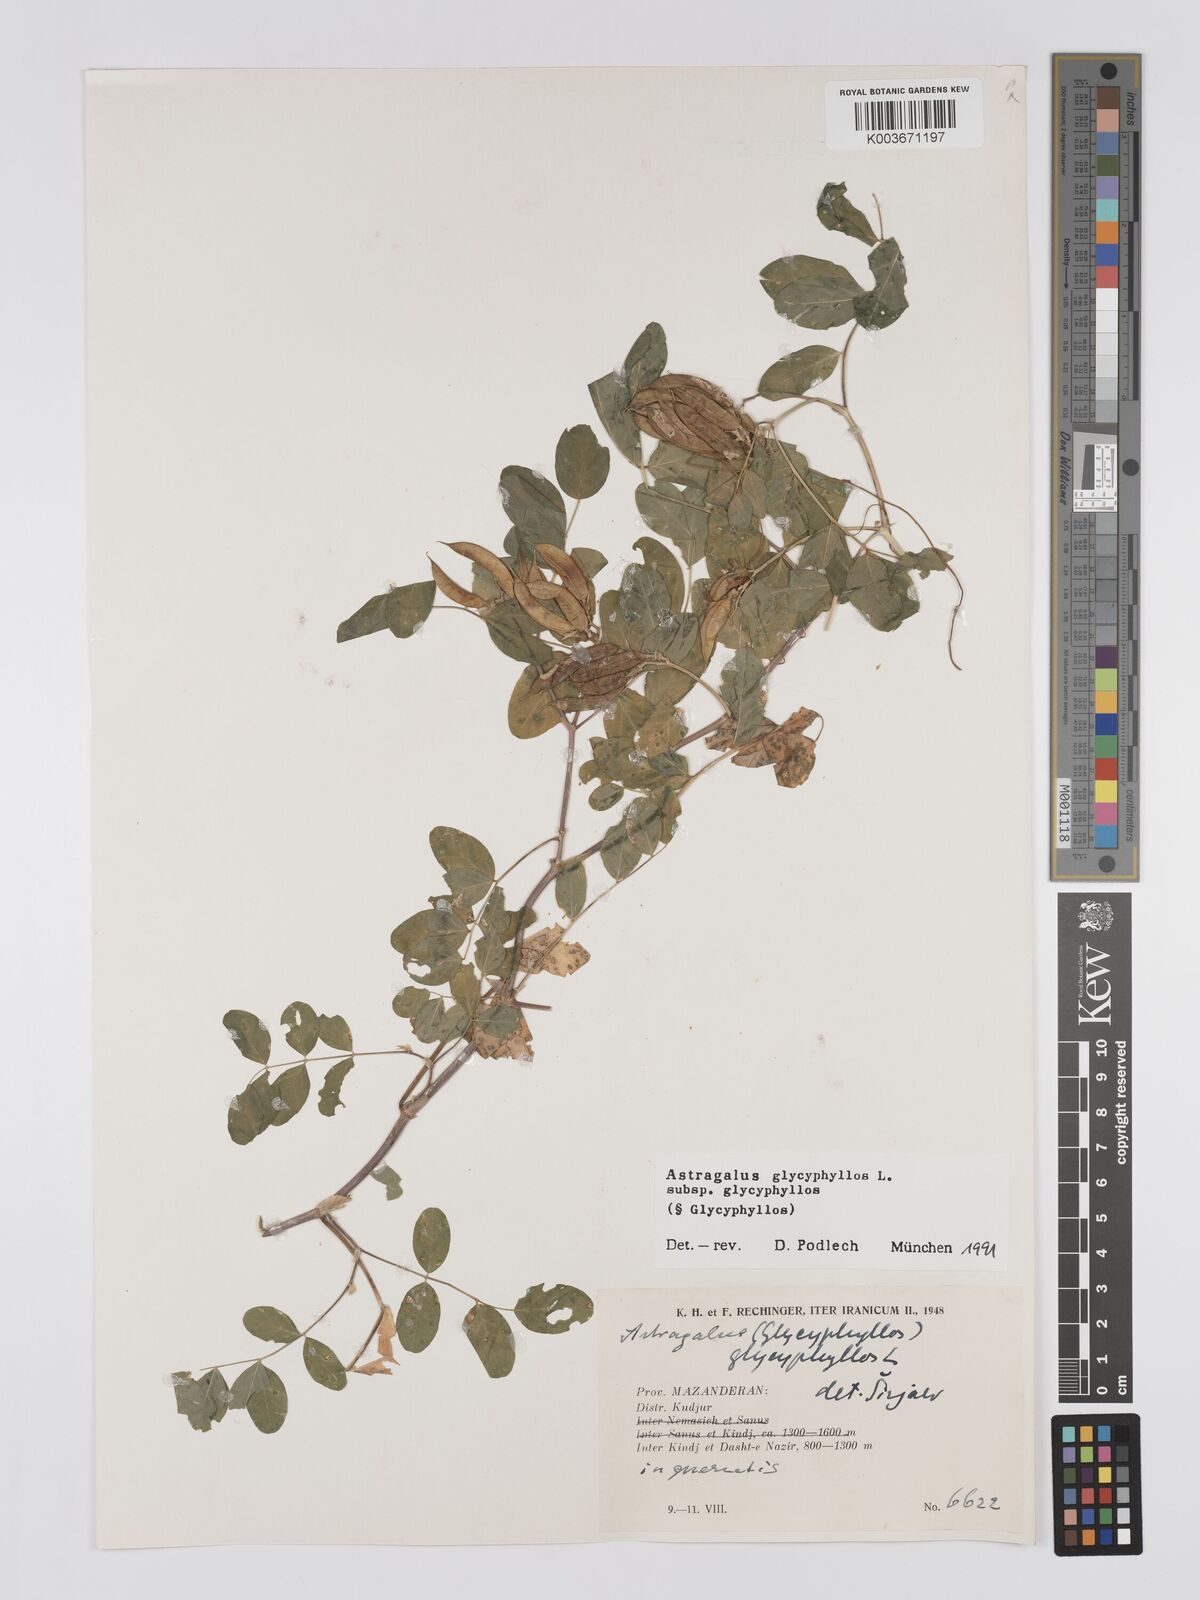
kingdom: Plantae
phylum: Tracheophyta
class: Magnoliopsida
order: Fabales
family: Fabaceae
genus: Astragalus
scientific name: Astragalus glycyphyllos
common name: Wild liquorice
